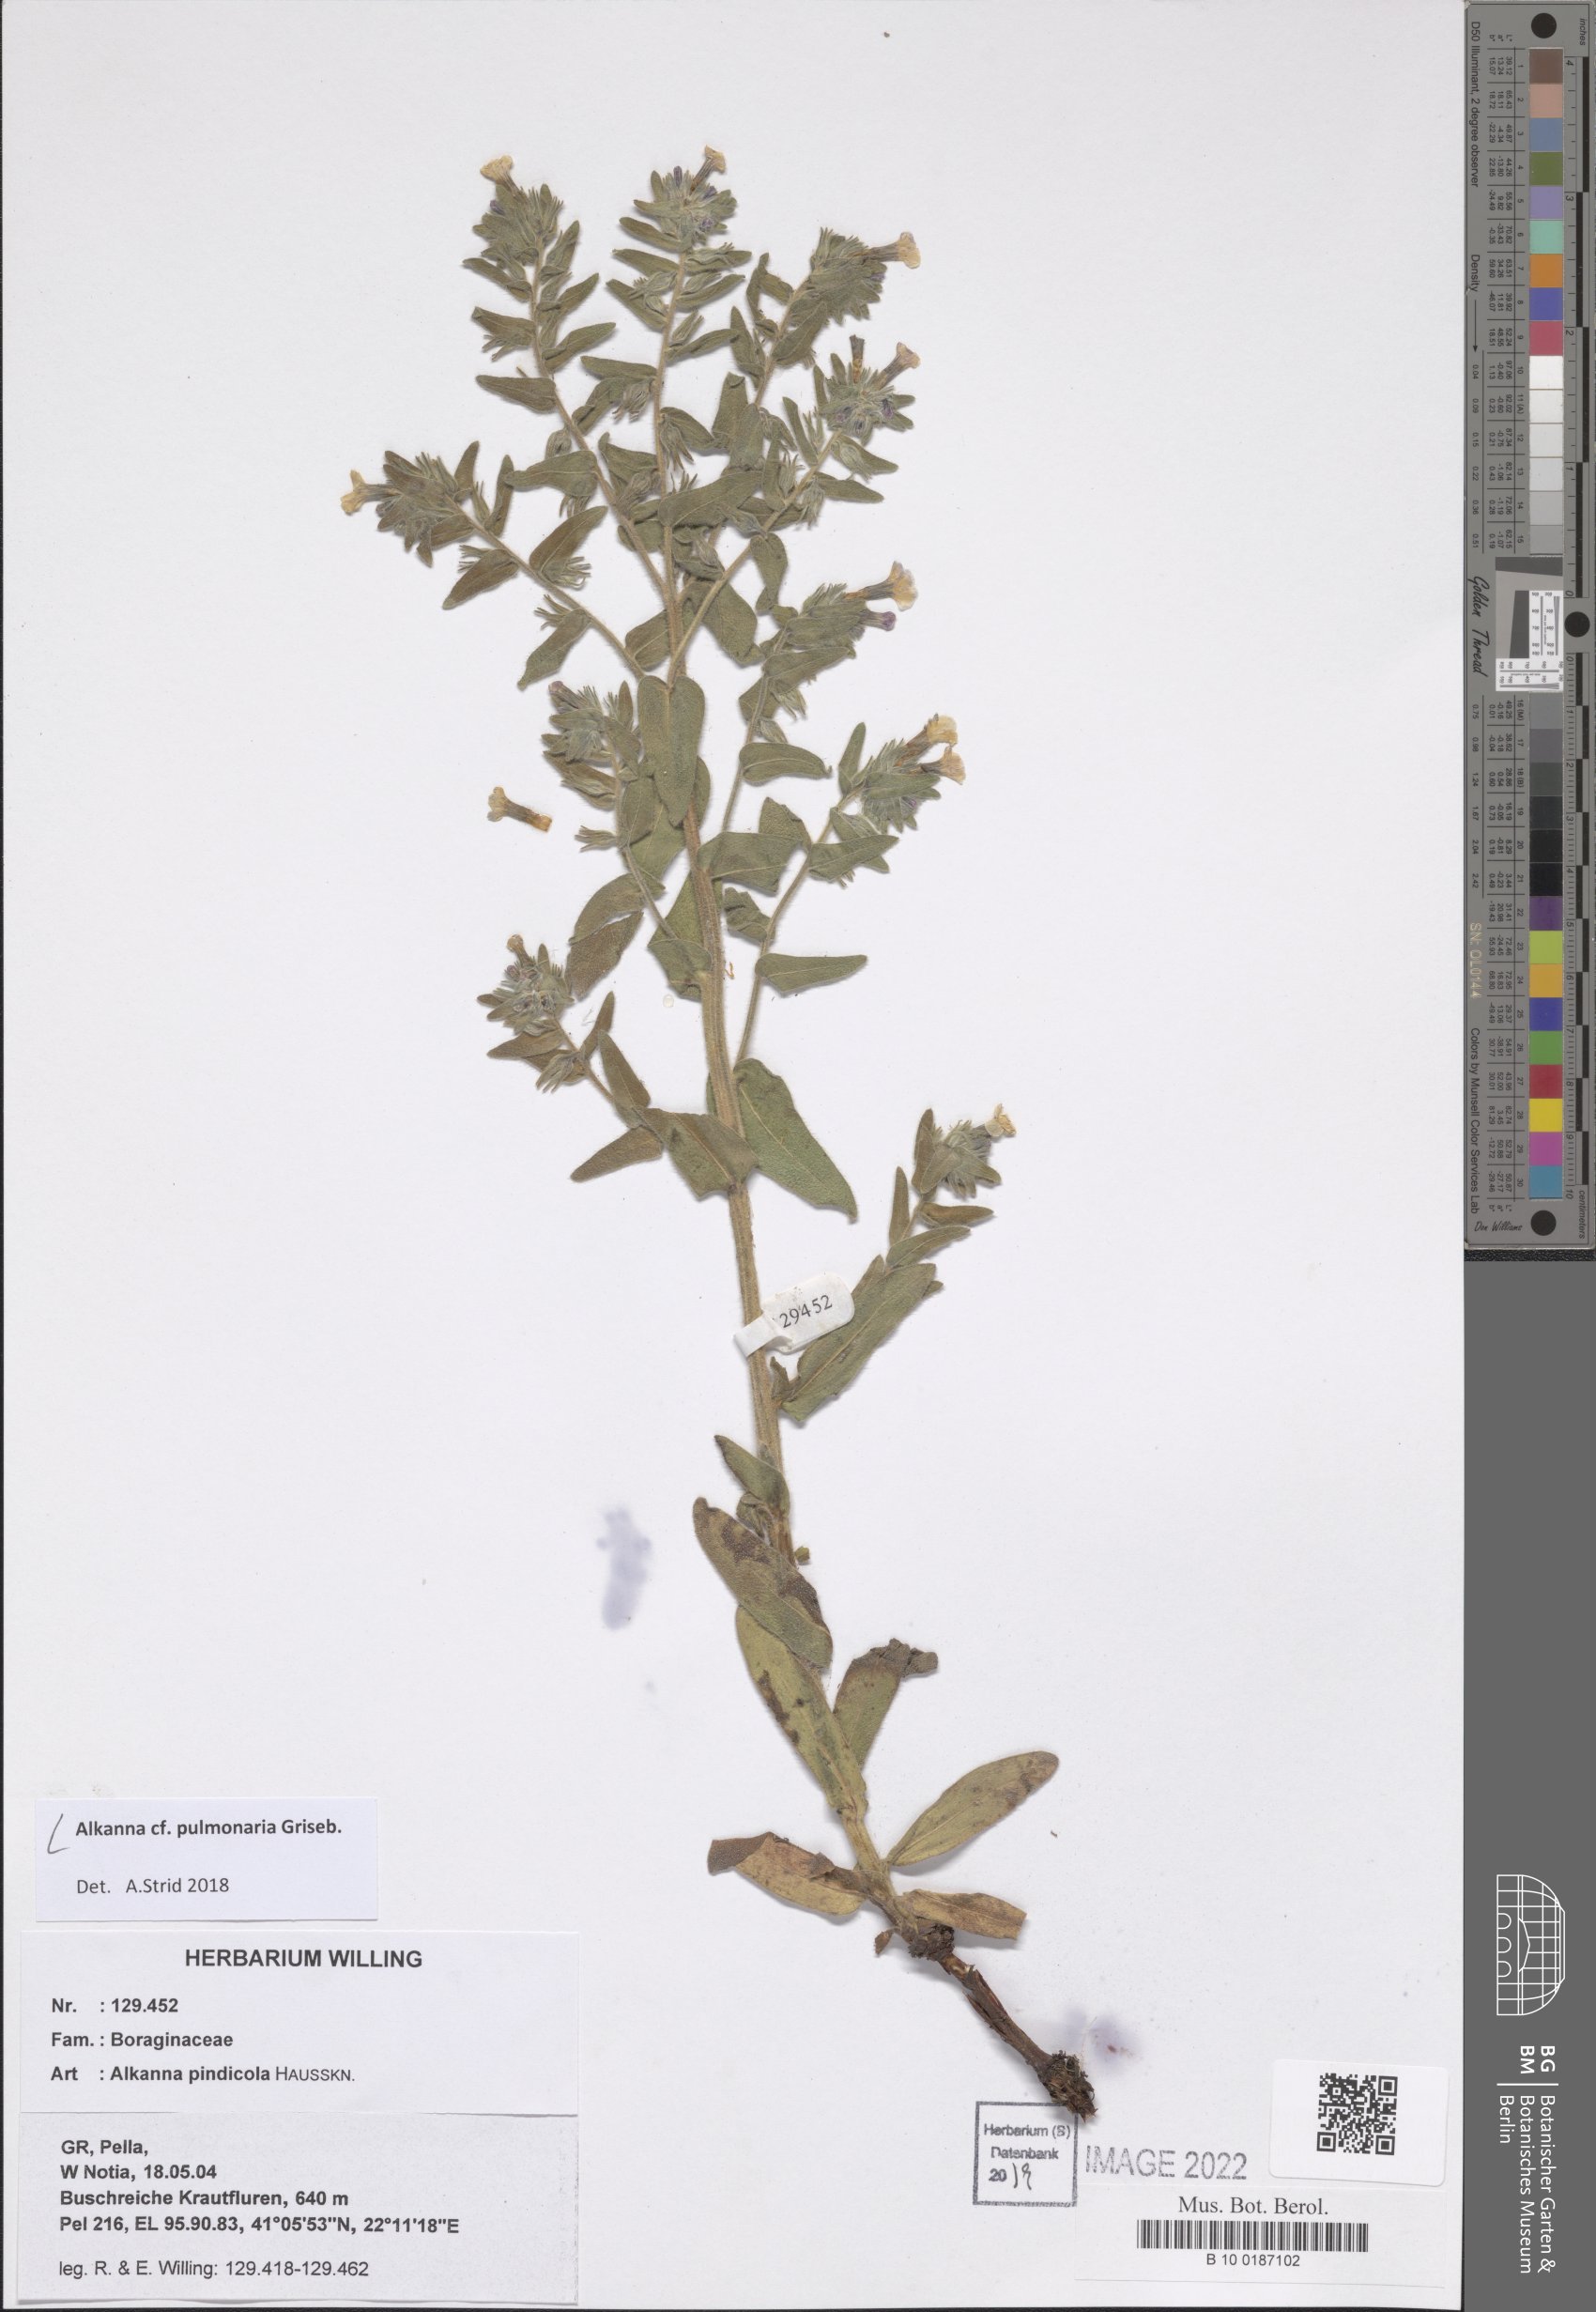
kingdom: Plantae
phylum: Tracheophyta
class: Magnoliopsida
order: Boraginales
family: Boraginaceae
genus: Alkanna
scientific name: Alkanna pulmonaria
